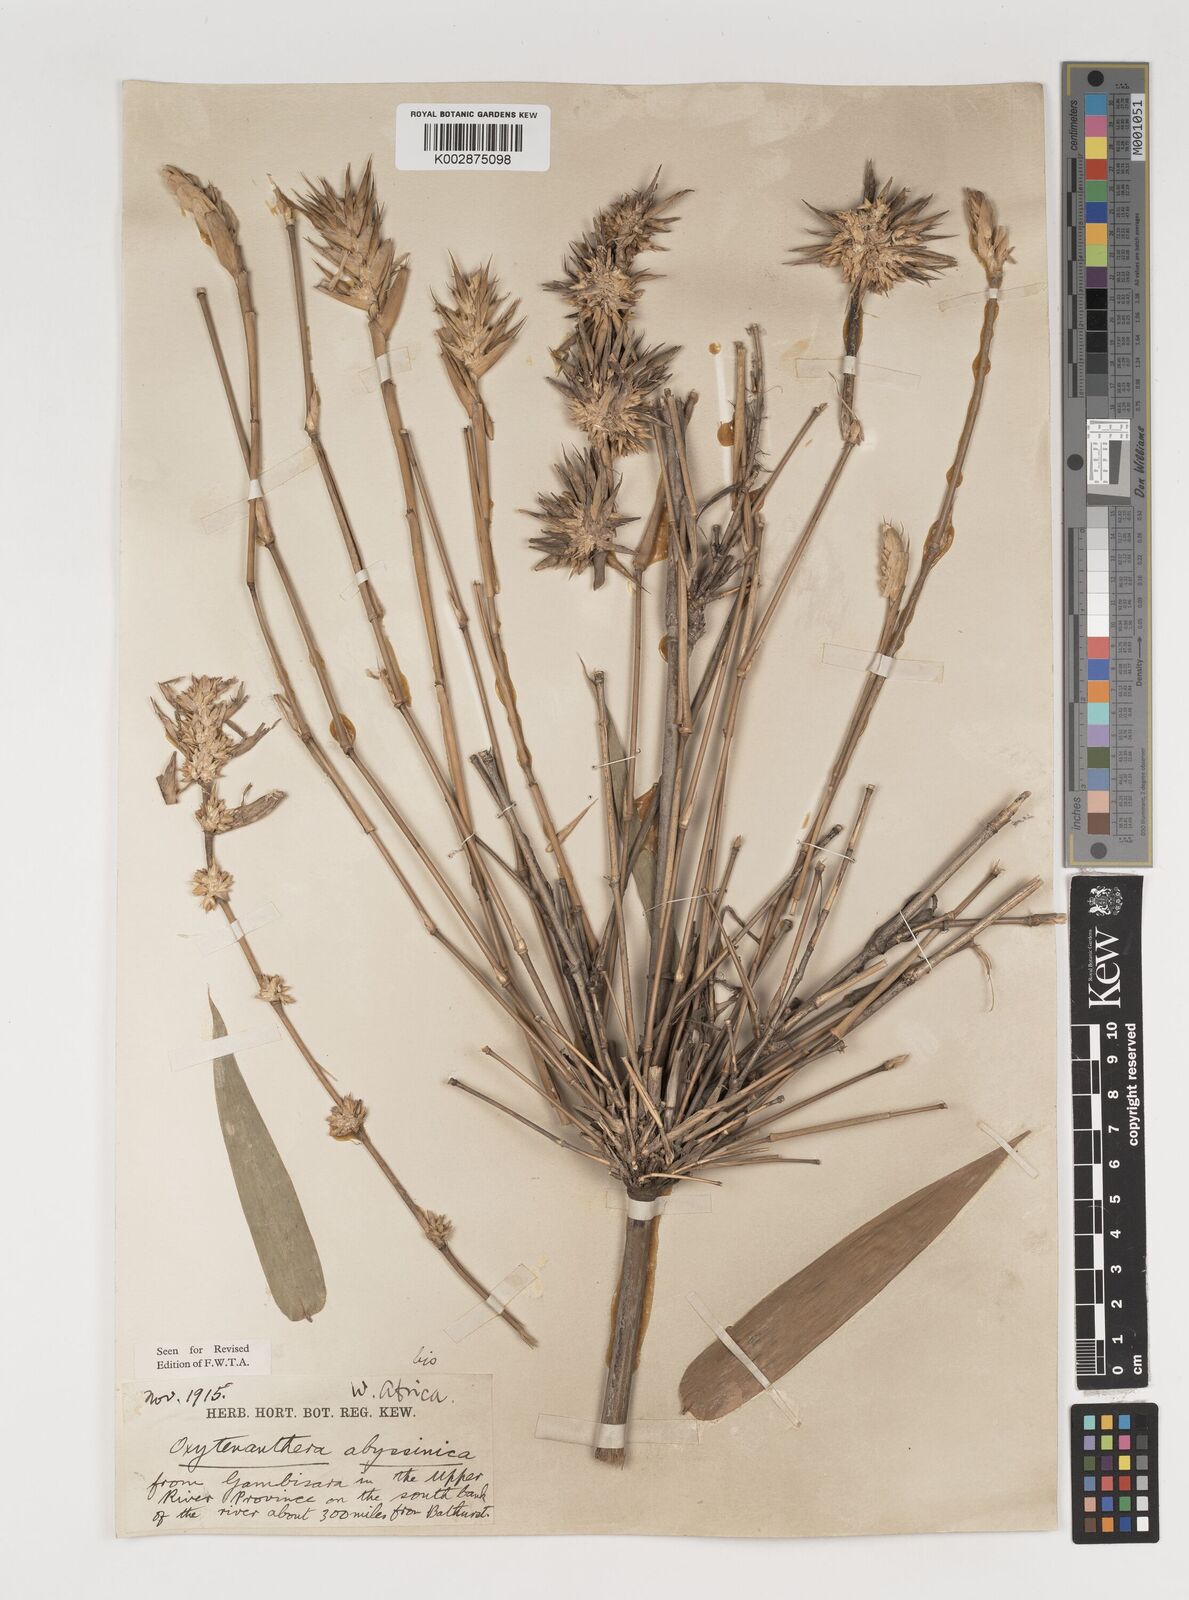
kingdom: Plantae
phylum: Tracheophyta
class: Liliopsida
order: Poales
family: Poaceae
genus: Oxytenanthera
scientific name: Oxytenanthera abyssinica
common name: Wine bamboo
